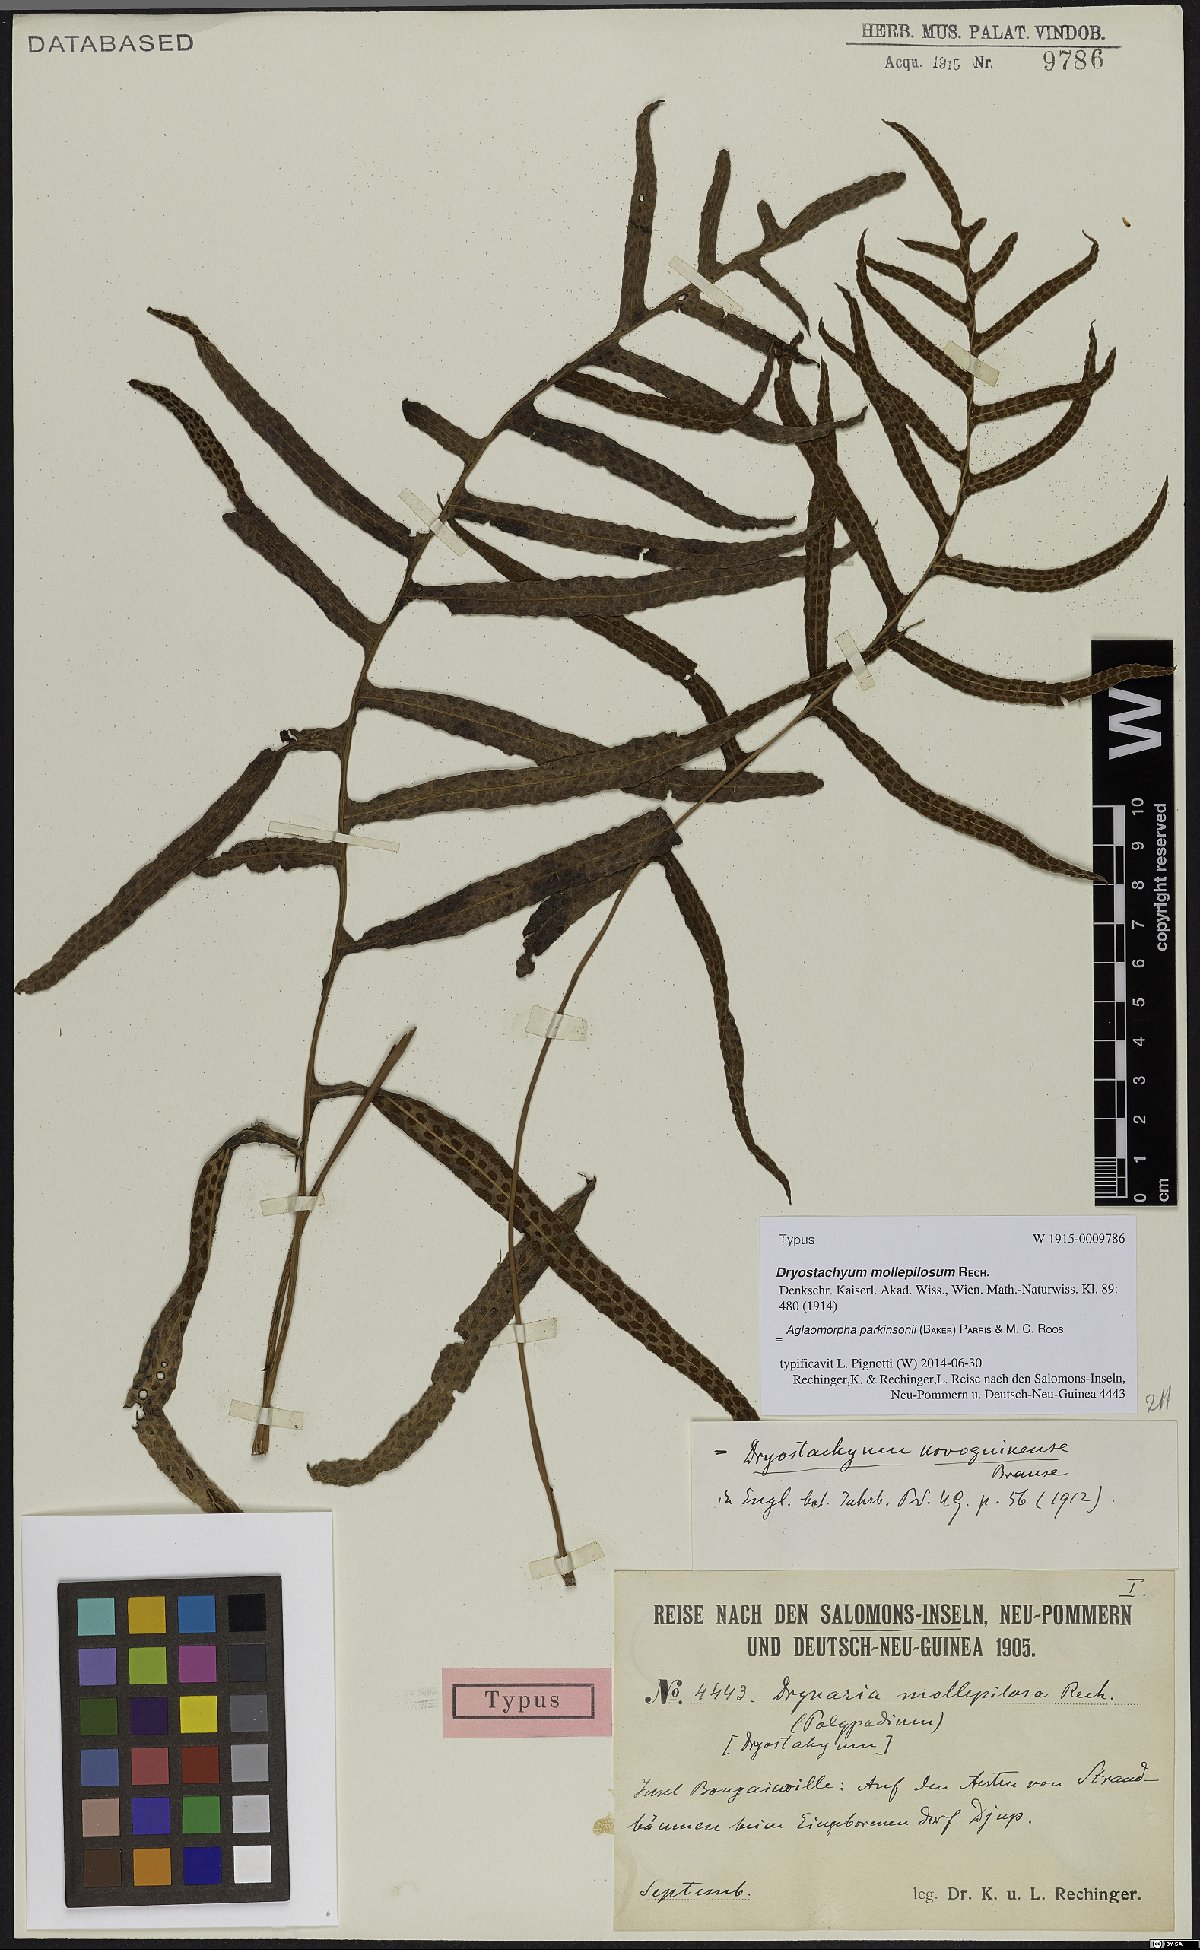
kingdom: Plantae
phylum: Tracheophyta
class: Polypodiopsida
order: Polypodiales
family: Polypodiaceae
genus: Drynaria
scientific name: Drynaria parkinsonii
